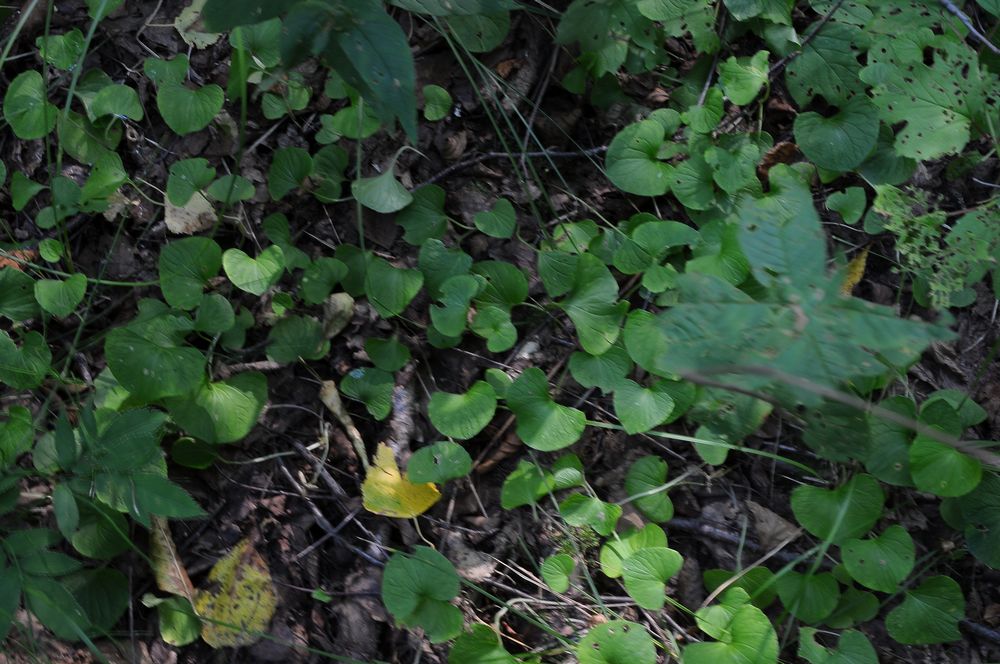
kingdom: Plantae
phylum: Tracheophyta
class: Magnoliopsida
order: Malpighiales
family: Violaceae
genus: Viola
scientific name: Viola
